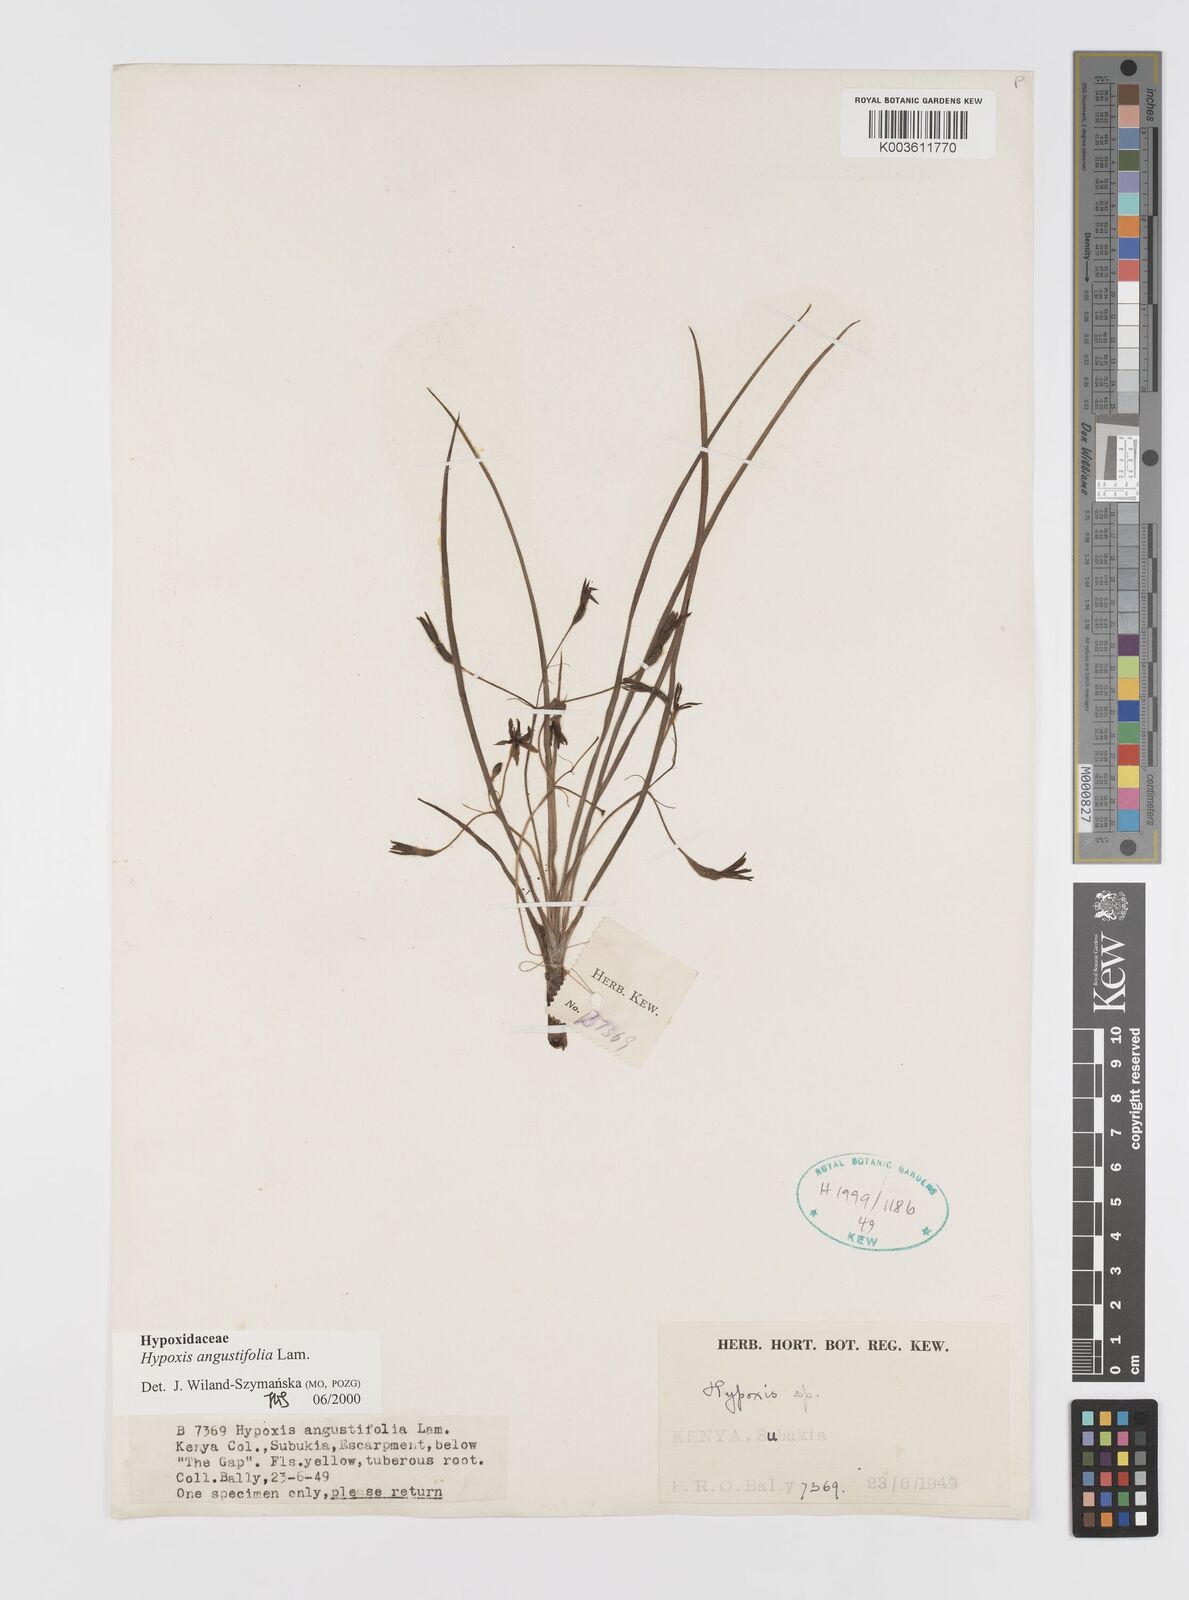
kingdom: Plantae
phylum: Tracheophyta
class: Liliopsida
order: Asparagales
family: Hypoxidaceae
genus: Hypoxis
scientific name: Hypoxis angustifolia
